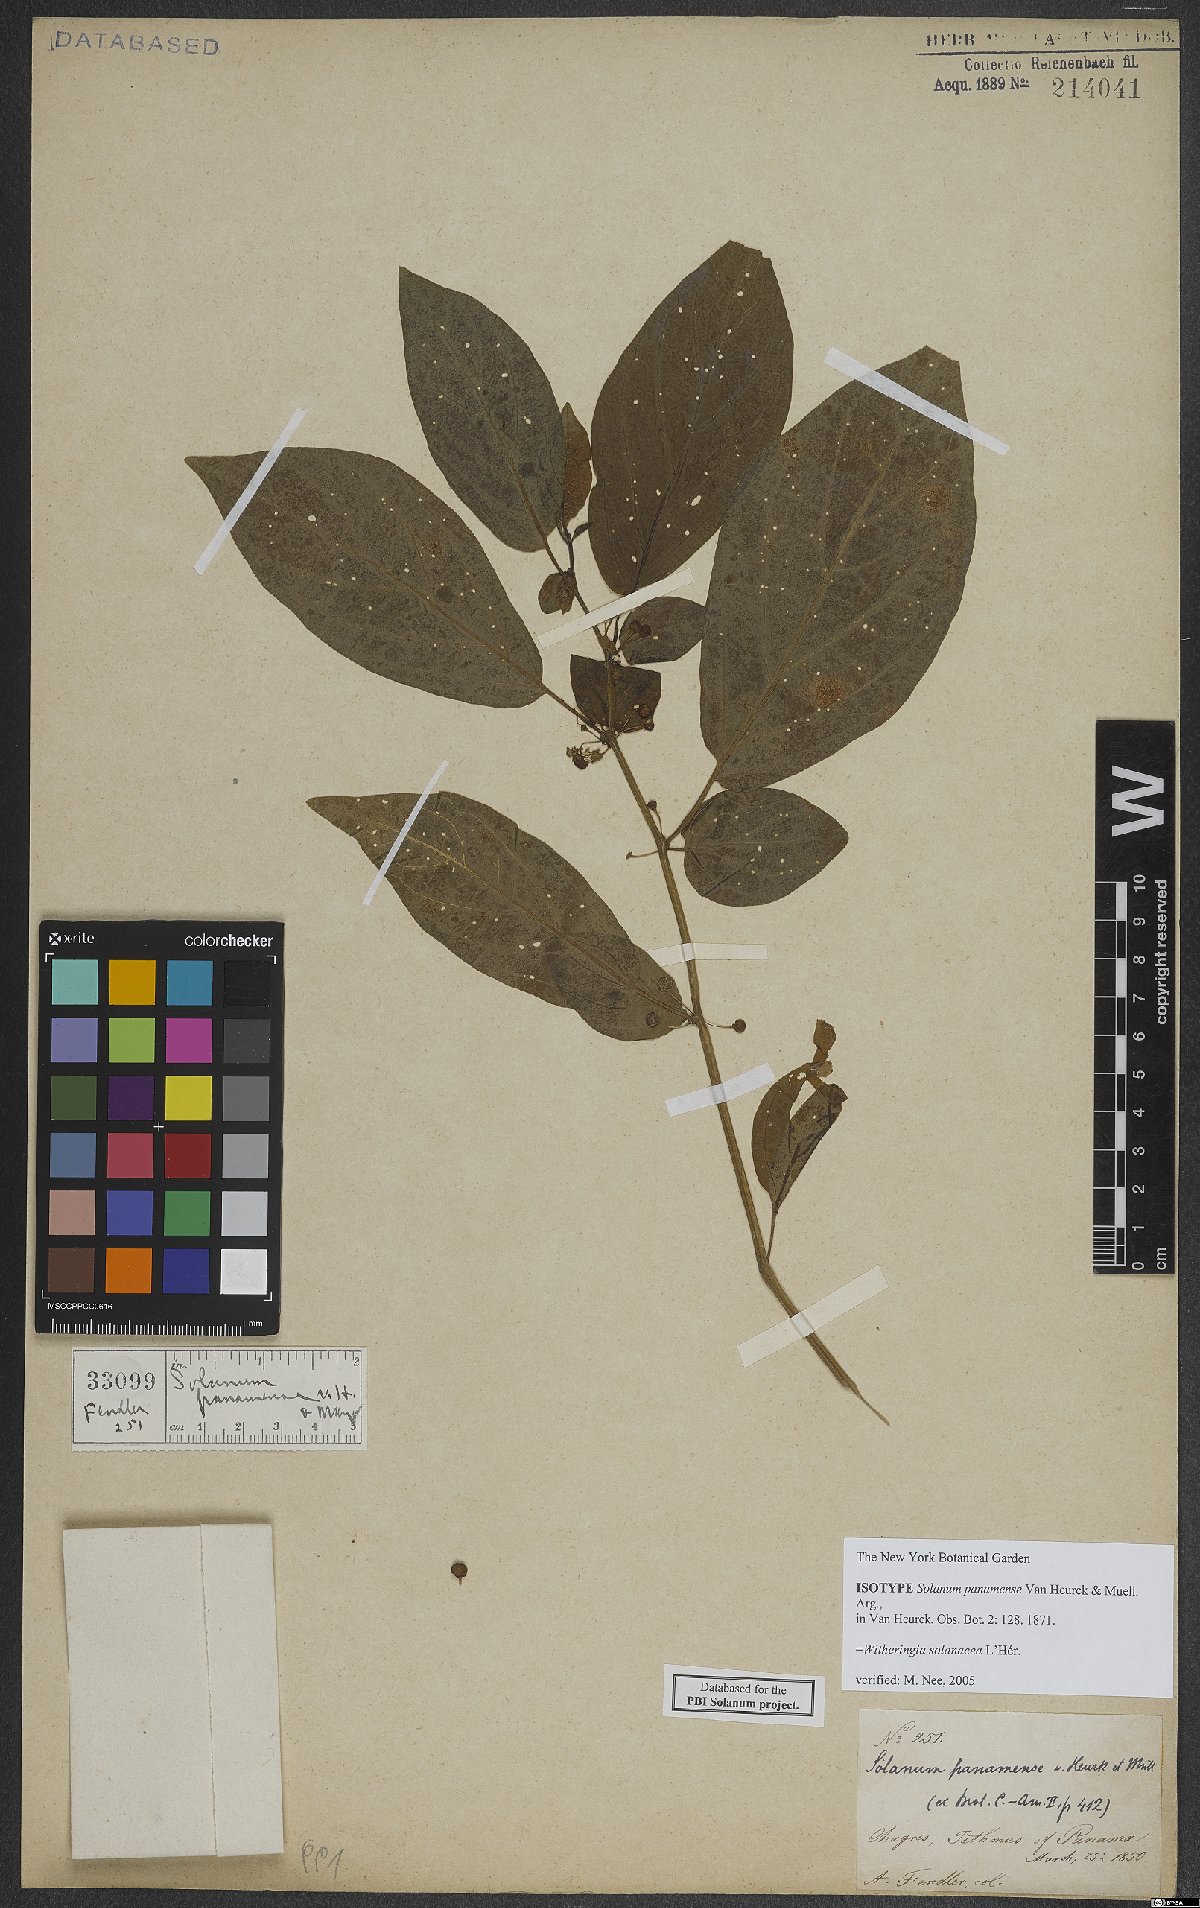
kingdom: Plantae
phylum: Tracheophyta
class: Magnoliopsida
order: Solanales
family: Solanaceae
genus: Witheringia
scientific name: Witheringia solanacea
